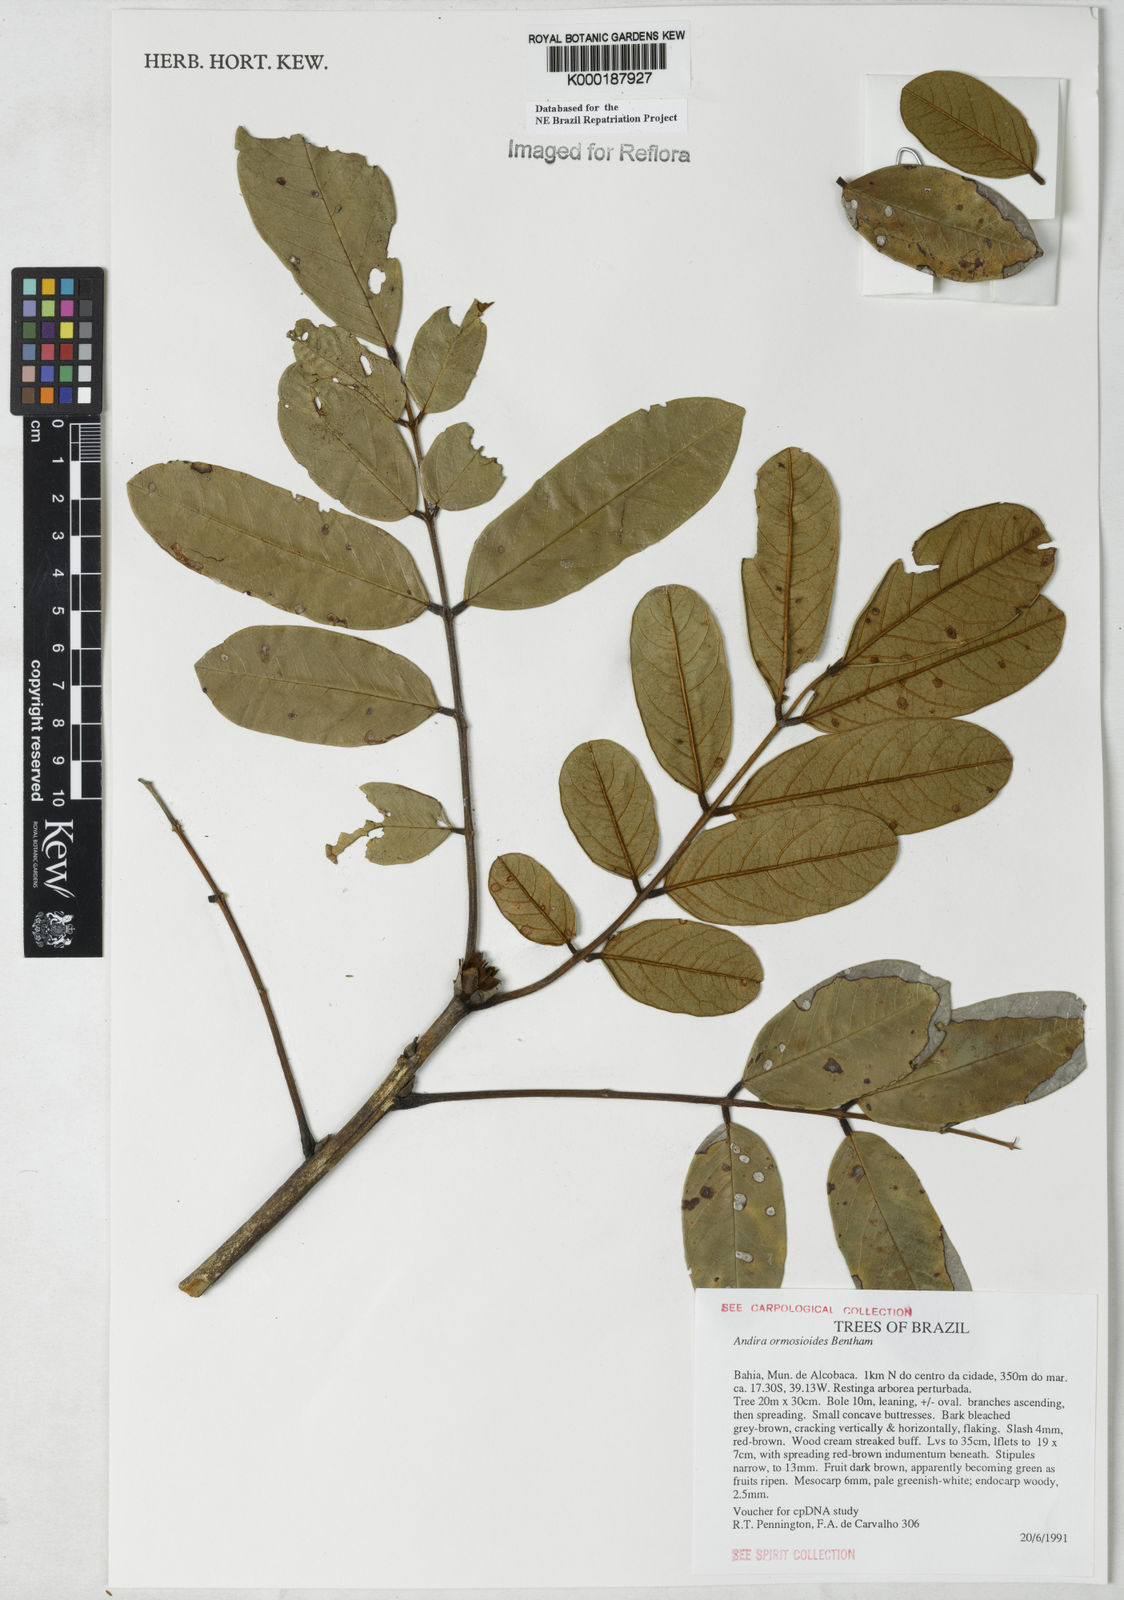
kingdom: Plantae
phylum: Tracheophyta
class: Magnoliopsida
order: Fabales
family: Fabaceae
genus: Andira
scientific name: Andira ormosioides
